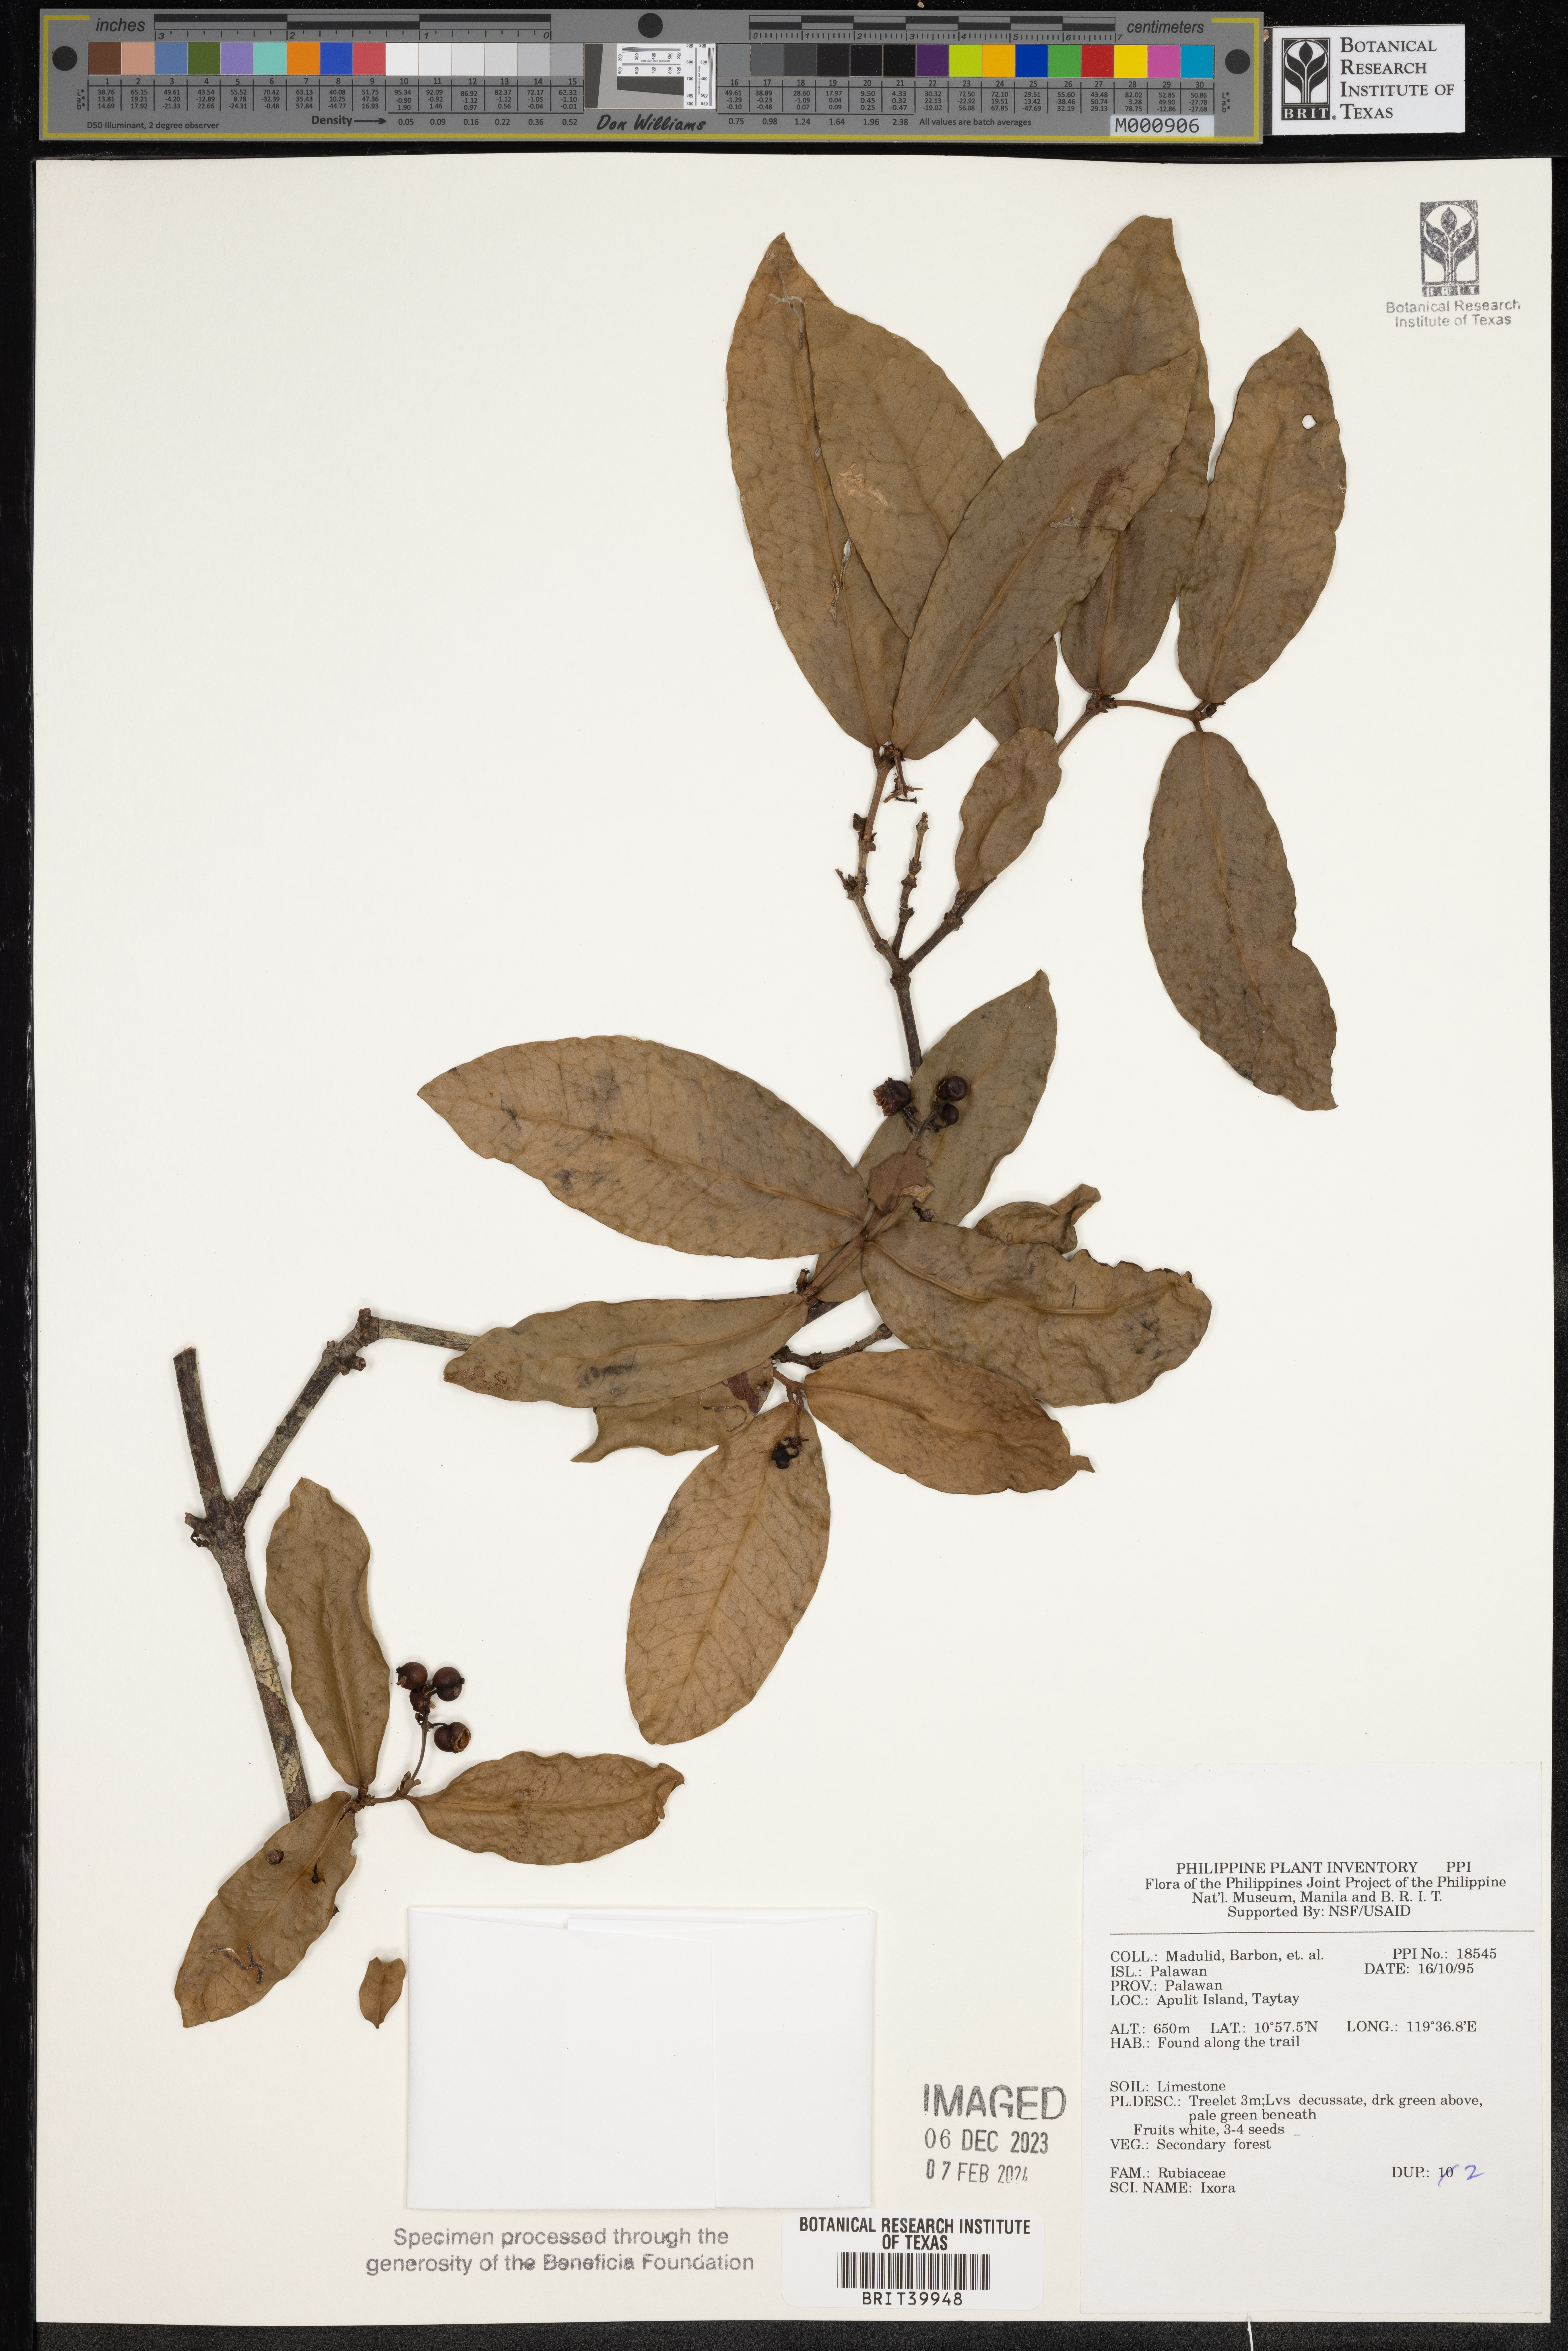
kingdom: Plantae
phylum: Tracheophyta
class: Magnoliopsida
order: Gentianales
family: Rubiaceae
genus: Ixora
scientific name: Ixora
